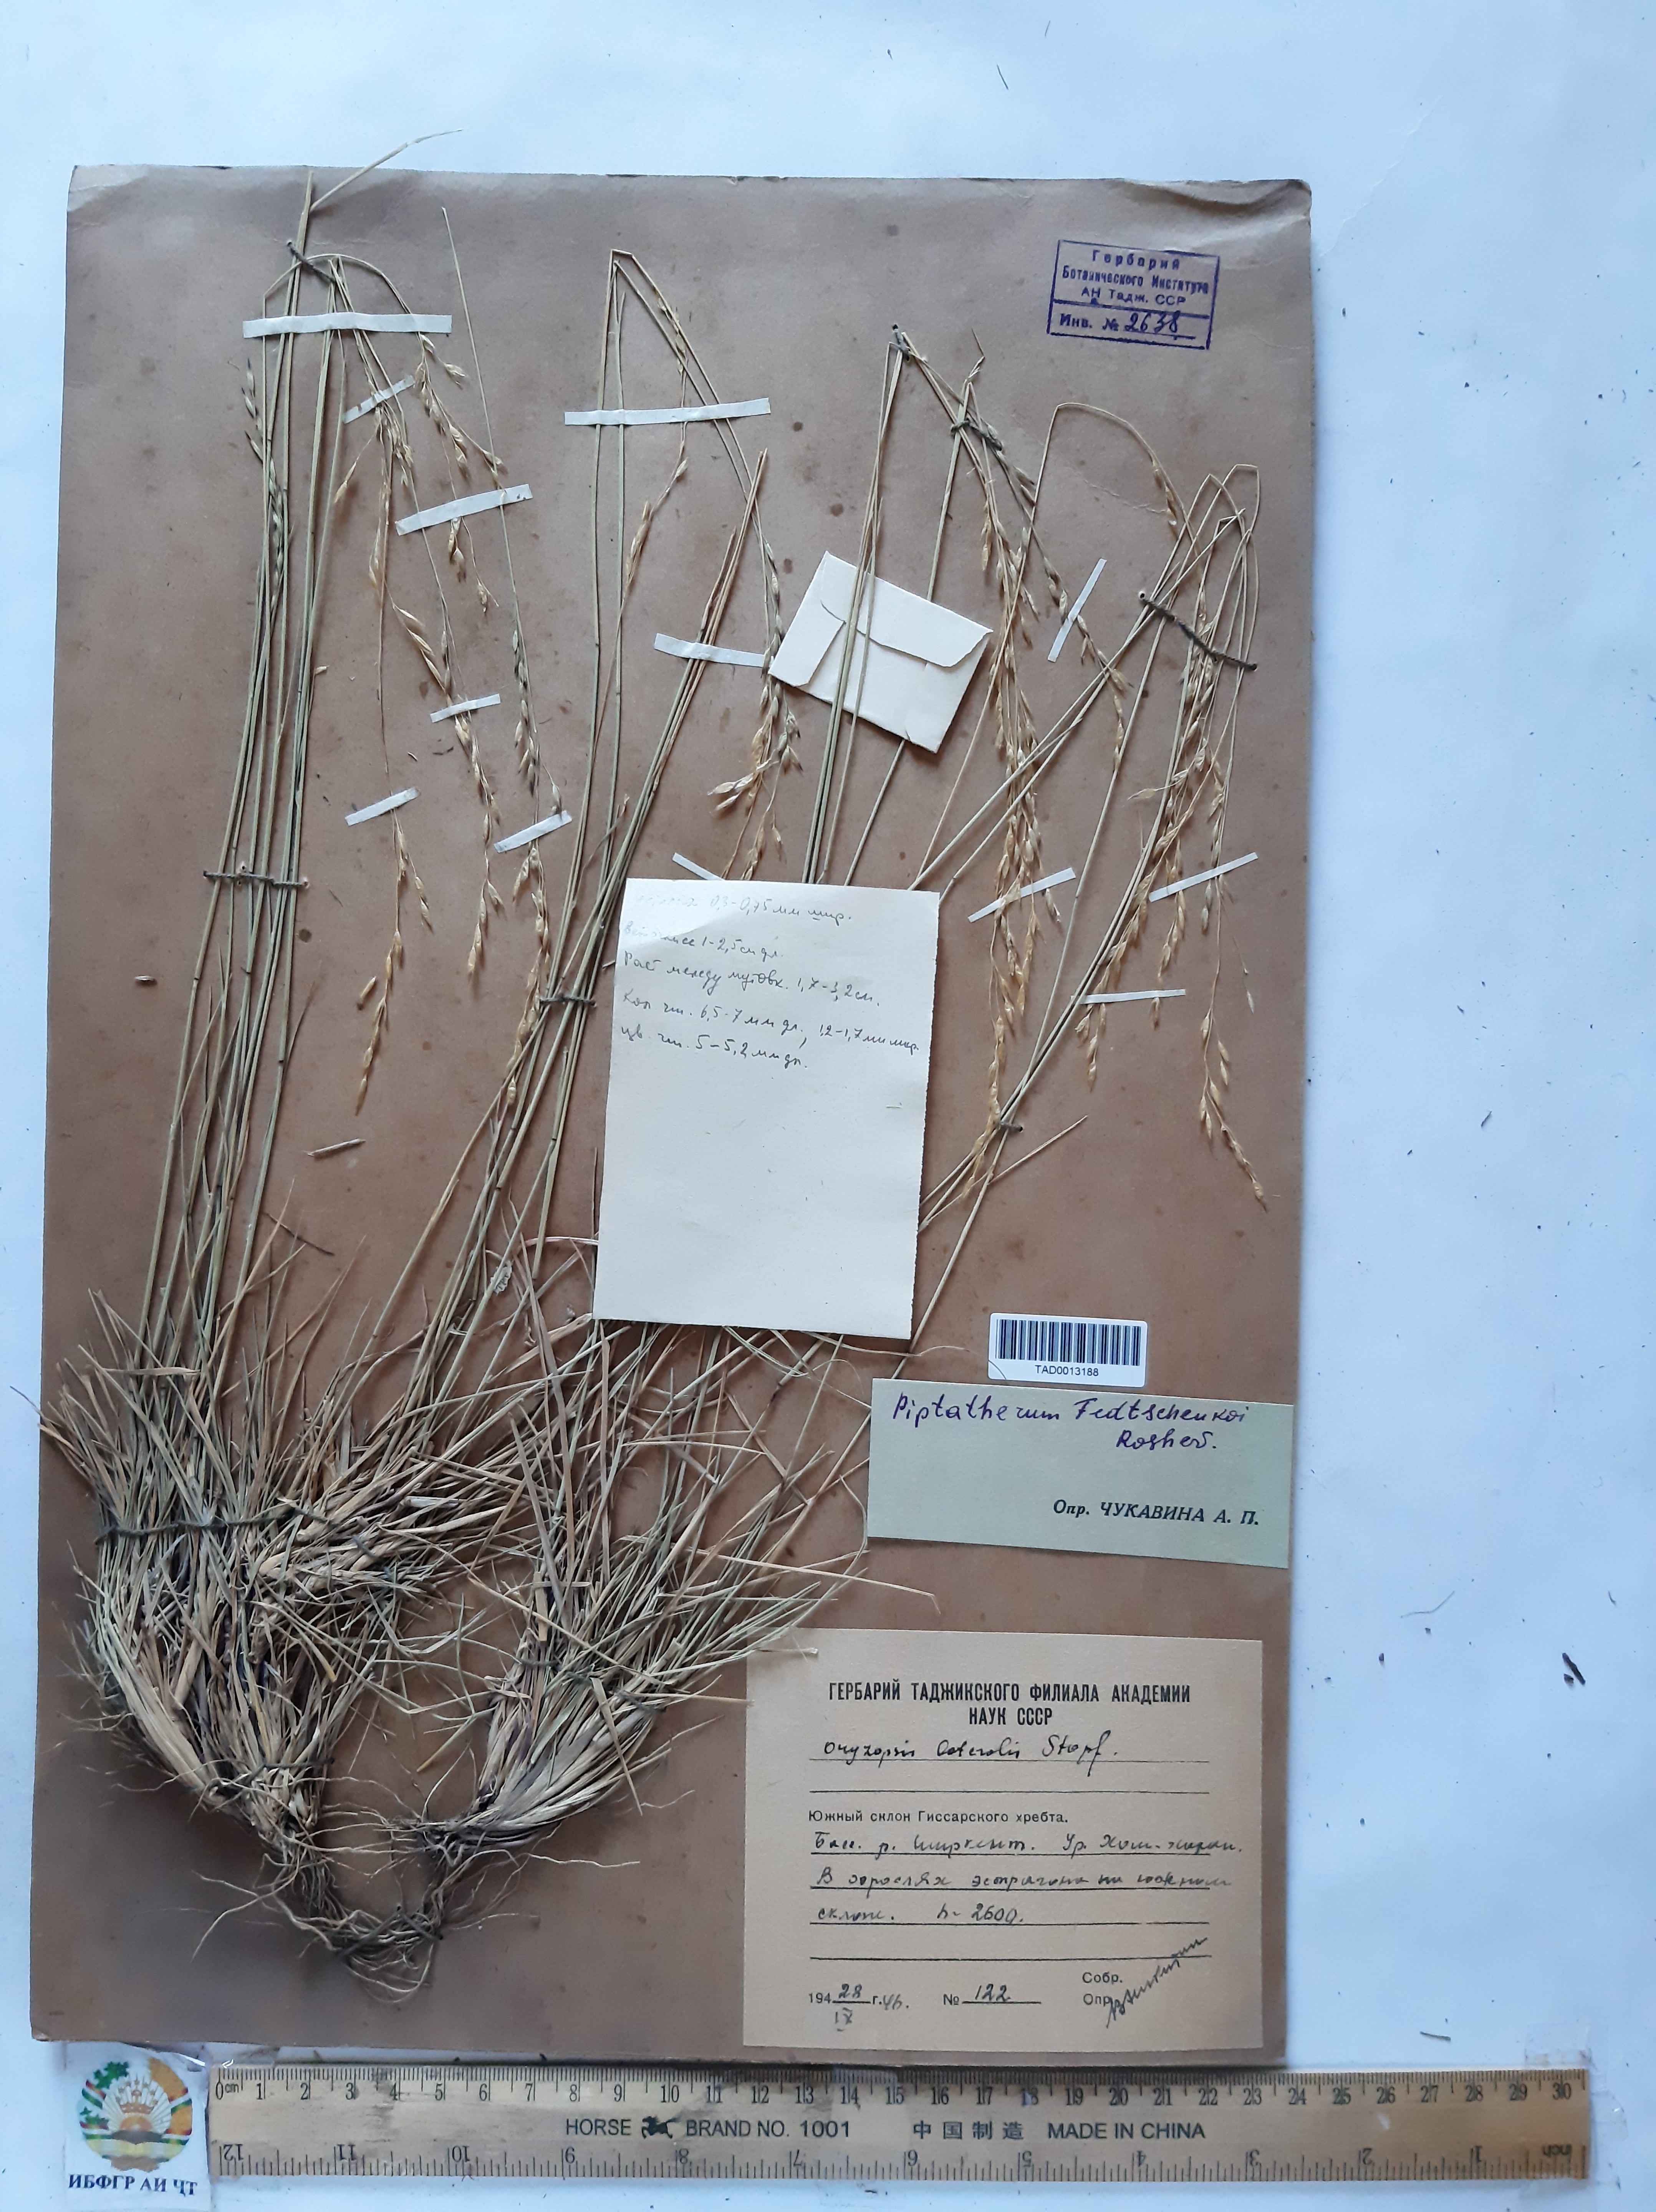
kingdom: Plantae
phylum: Tracheophyta
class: Liliopsida
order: Poales
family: Poaceae
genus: Piptatherum
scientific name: Piptatherum sogdianum
